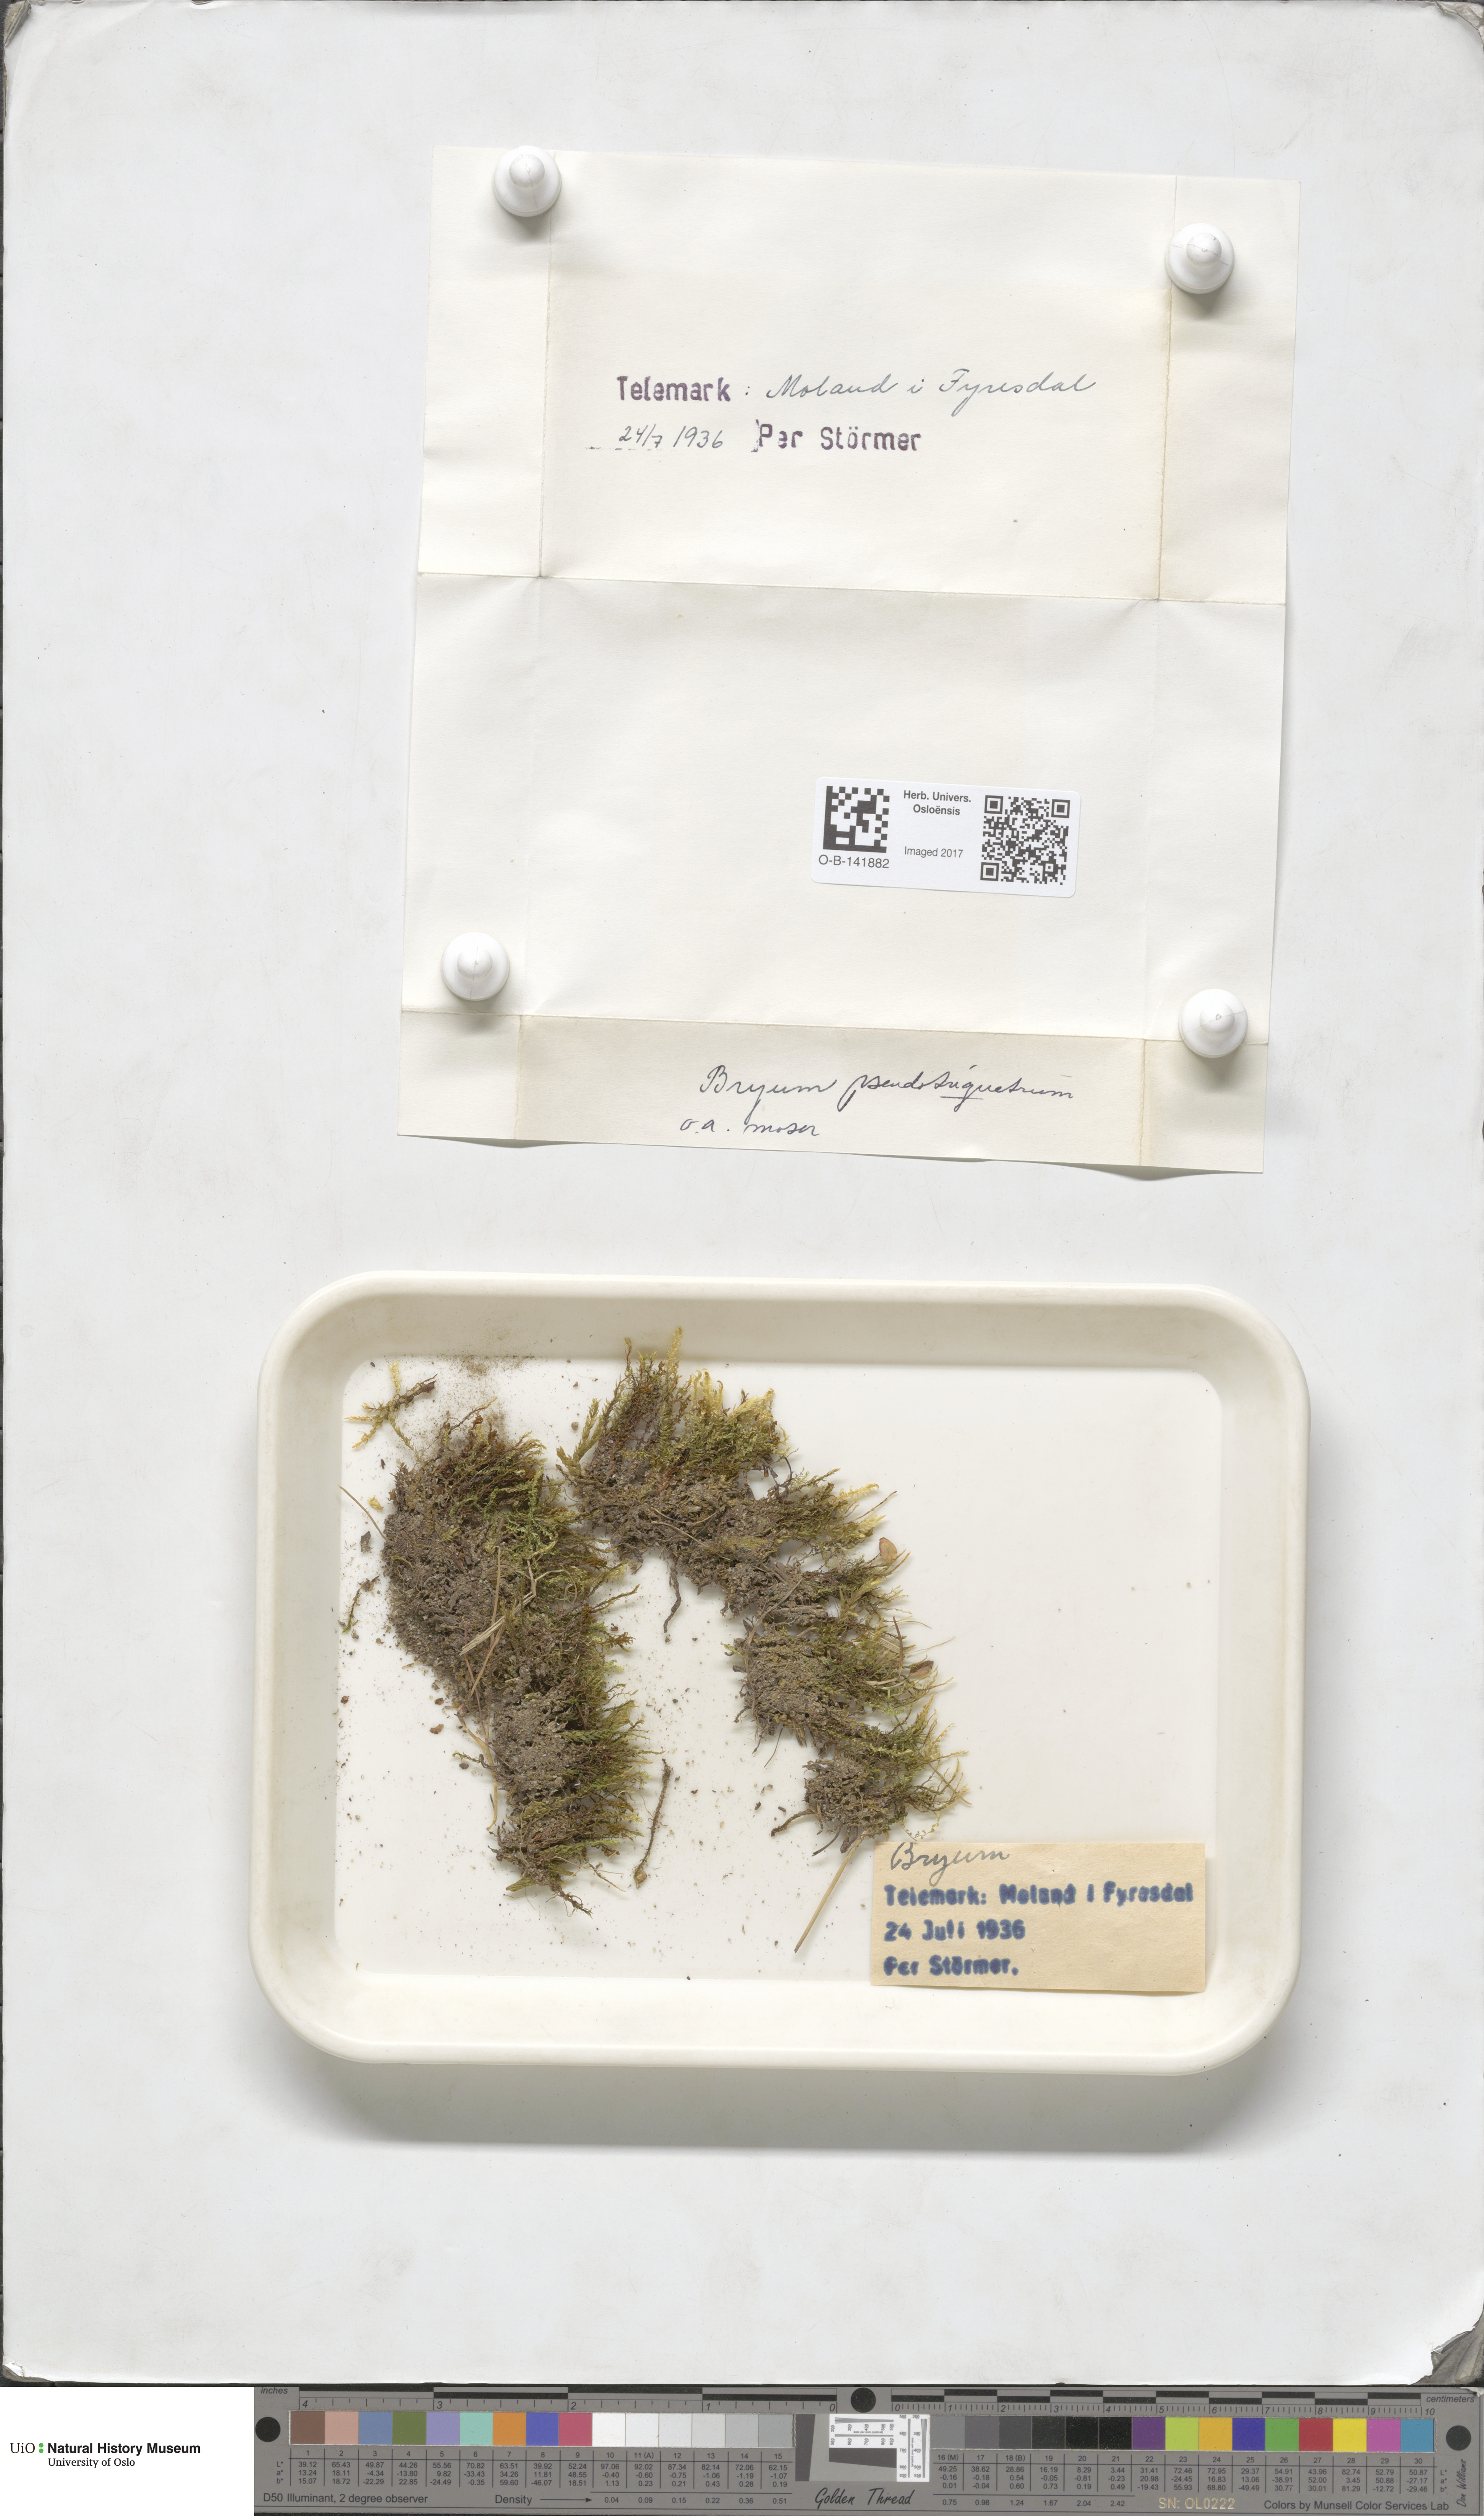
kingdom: Plantae
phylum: Bryophyta
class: Bryopsida
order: Bryales
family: Bryaceae
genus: Ptychostomum
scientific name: Ptychostomum pseudotriquetrum
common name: Long-leaved thread moss
